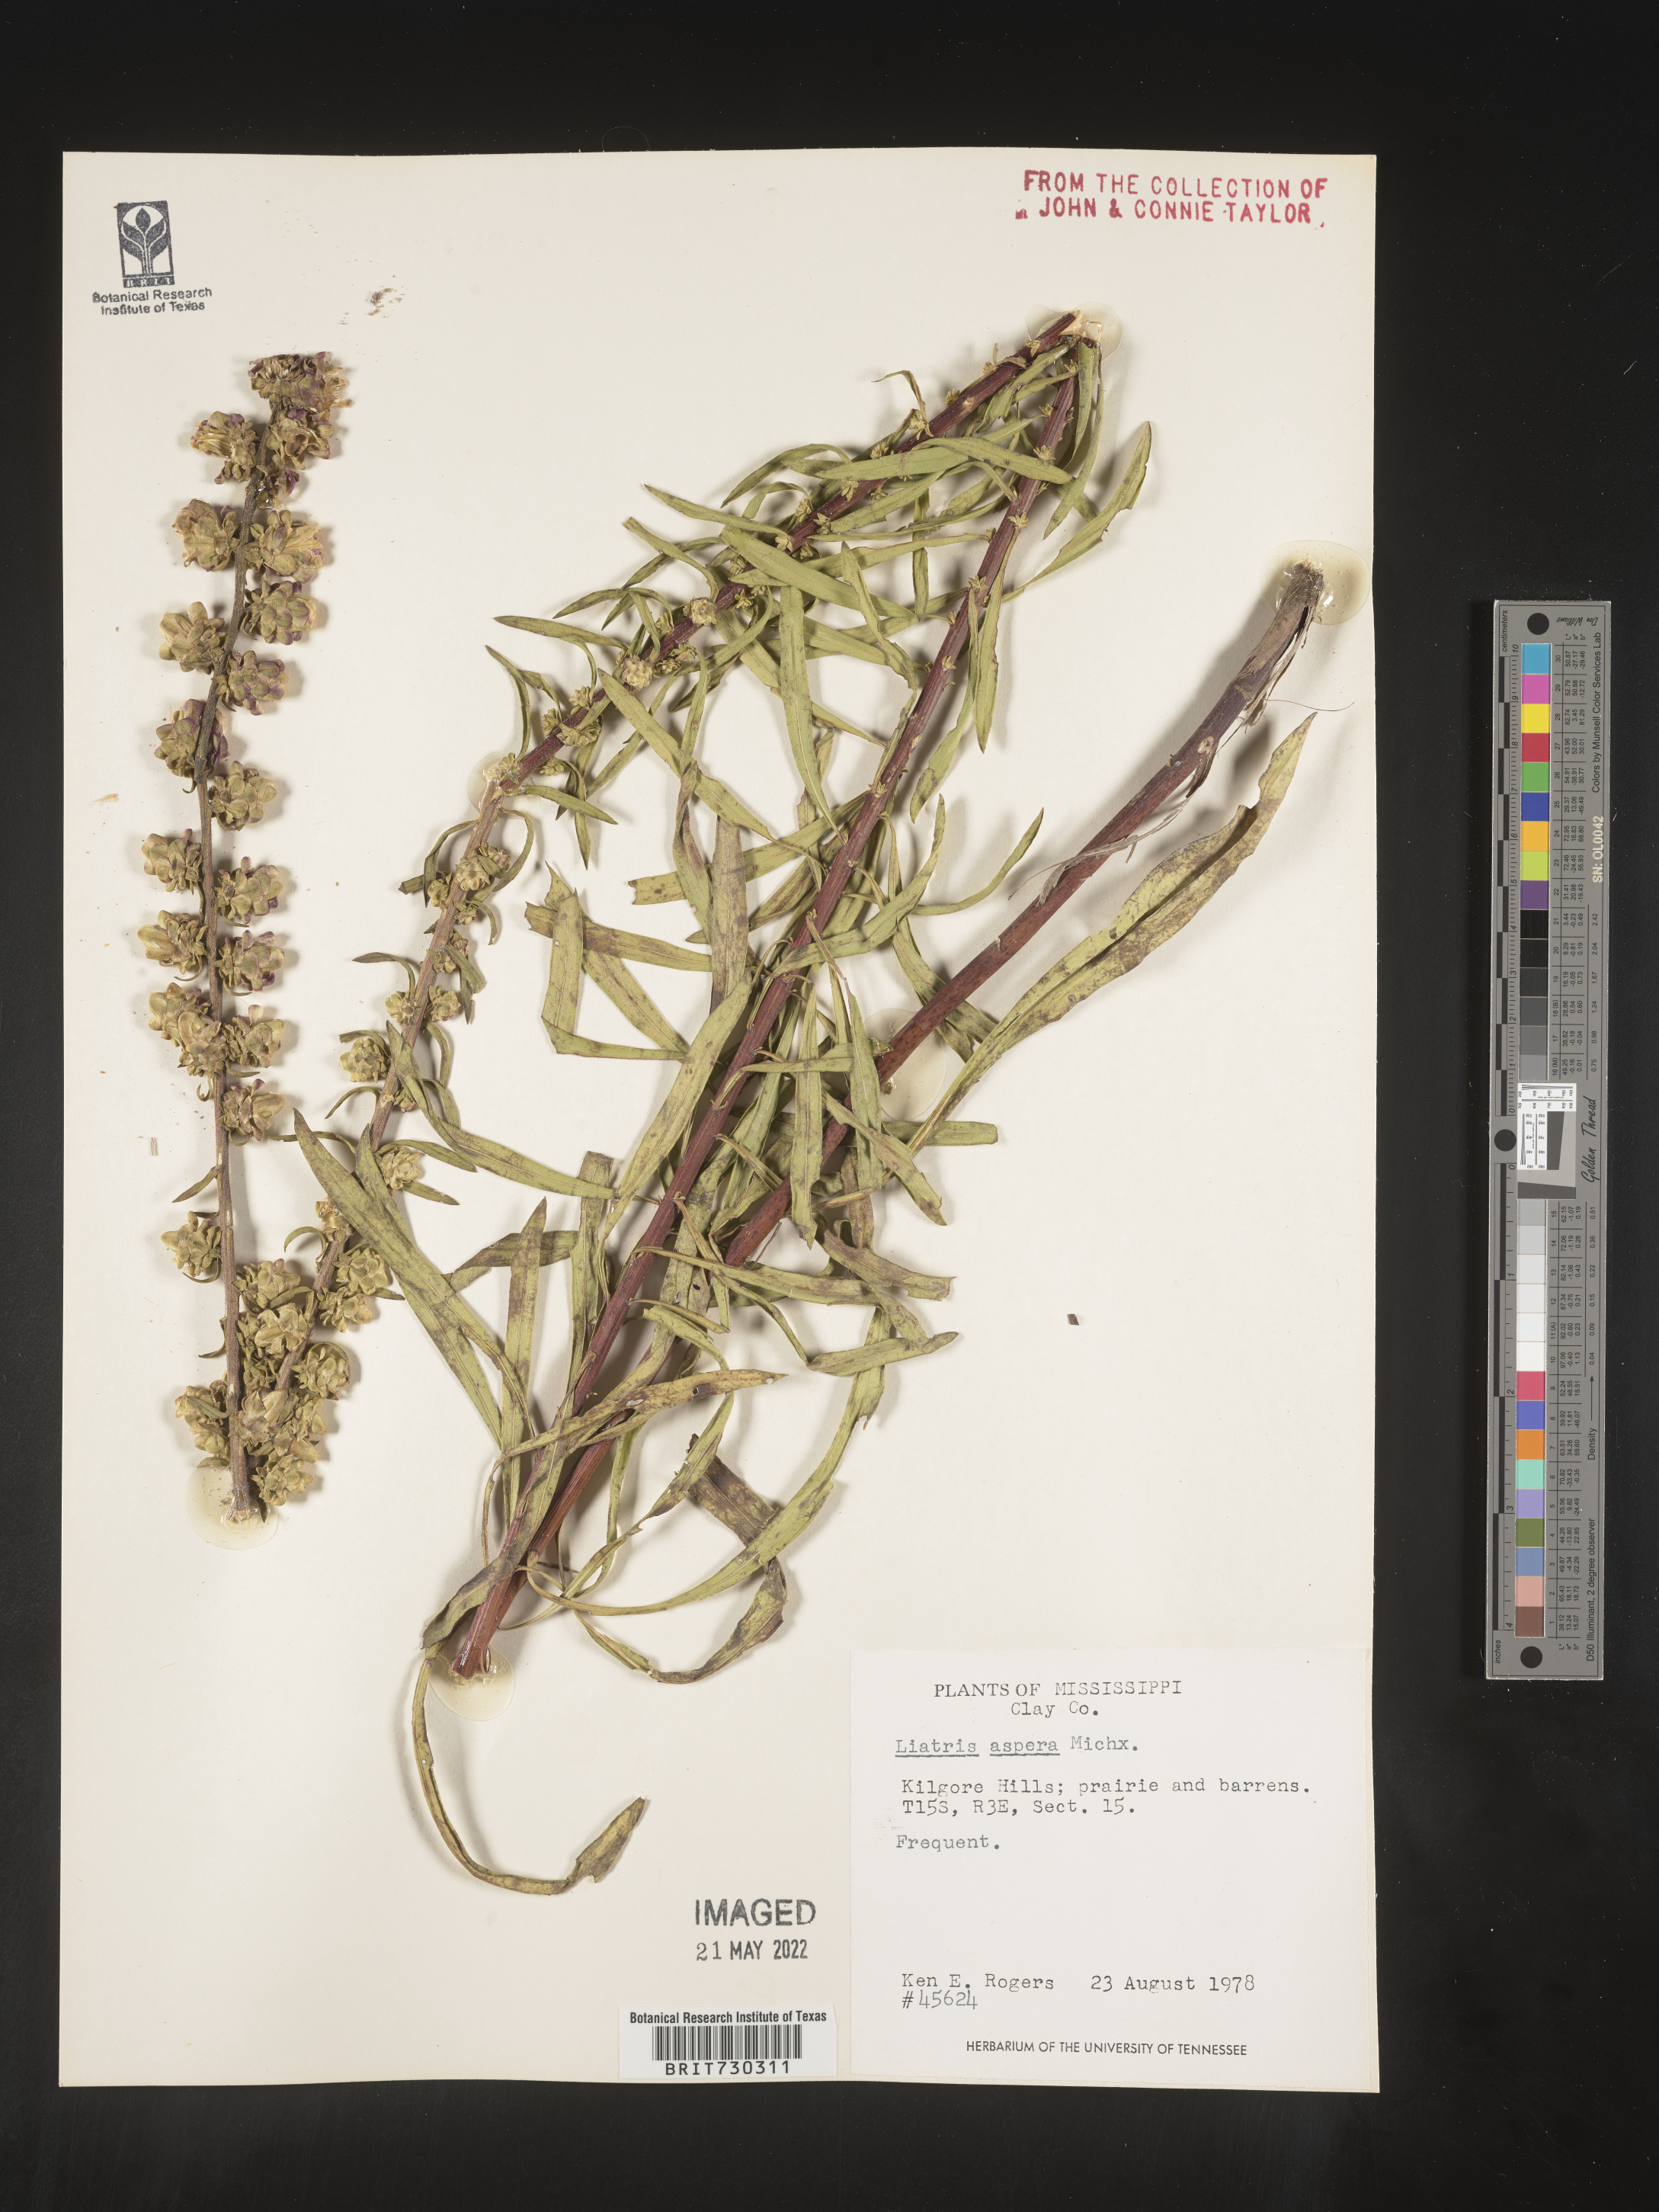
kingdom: Plantae
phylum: Tracheophyta
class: Magnoliopsida
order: Asterales
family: Asteraceae
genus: Liatris
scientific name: Liatris aspera
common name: Lacerate blazing-star
